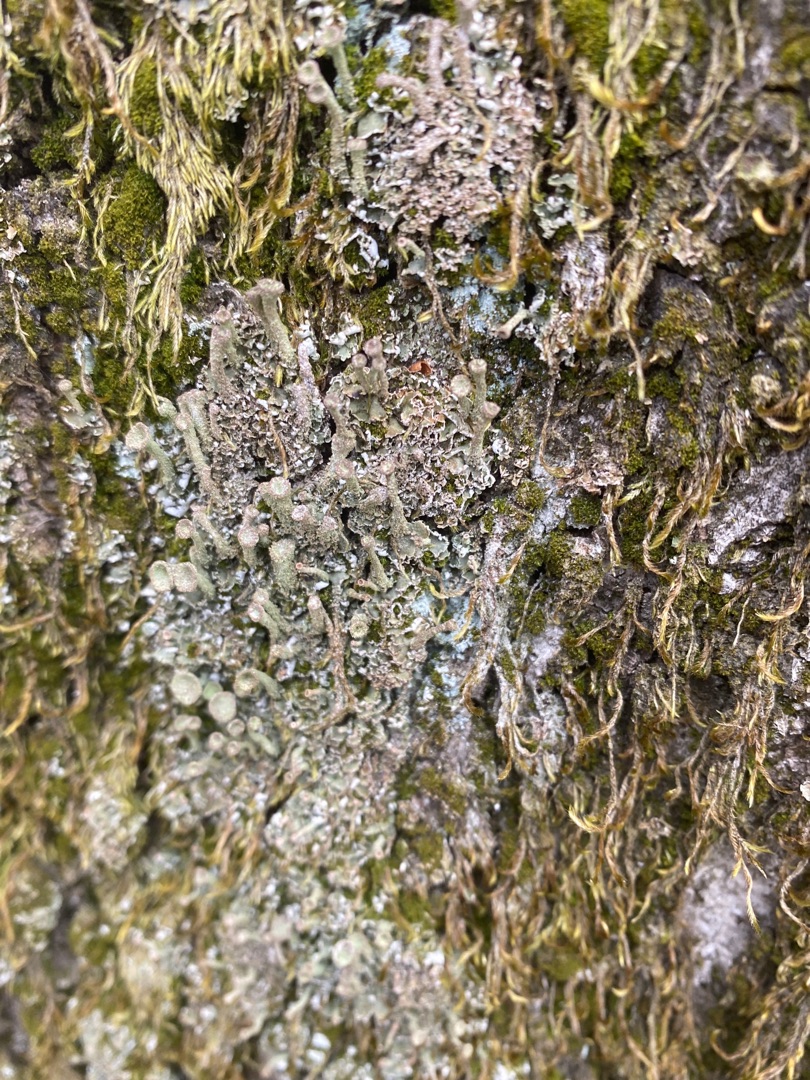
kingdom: Fungi
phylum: Ascomycota
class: Lecanoromycetes
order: Lecanorales
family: Cladoniaceae
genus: Cladonia
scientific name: Cladonia chlorophaea
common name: Brungrøn bægerlav
